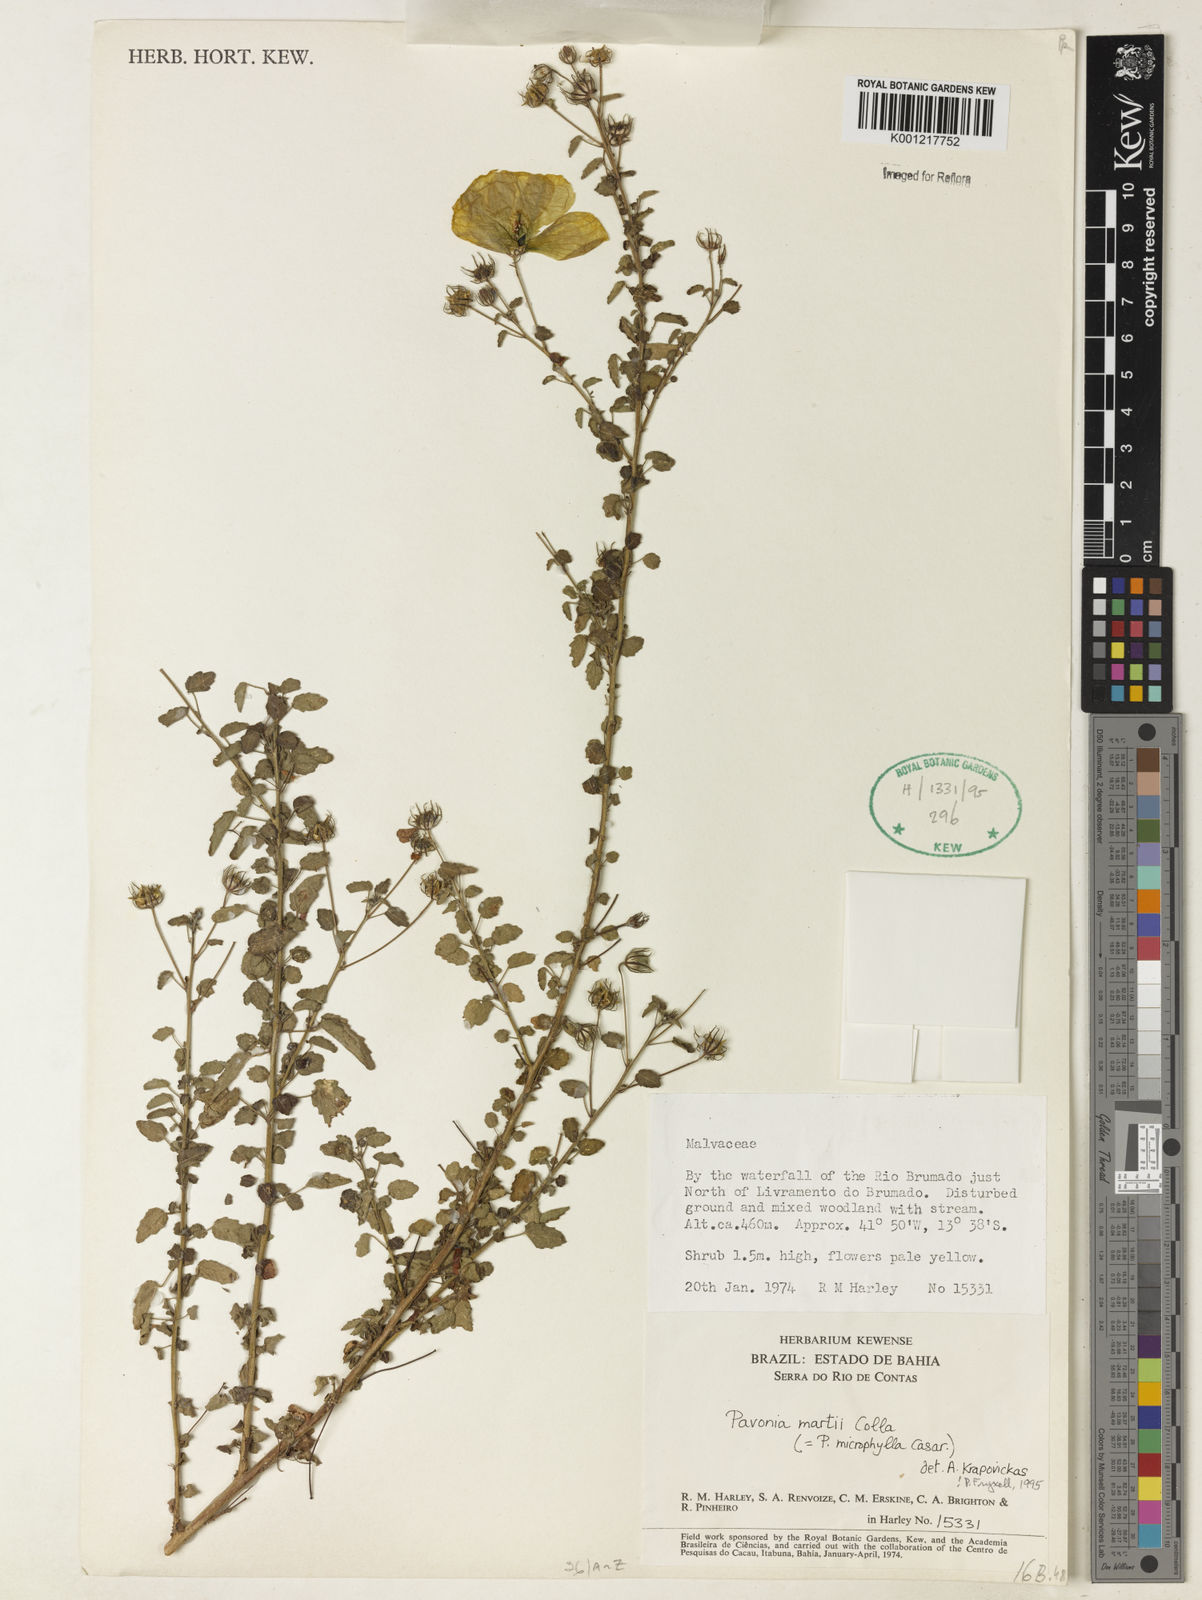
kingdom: Plantae
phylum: Tracheophyta
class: Magnoliopsida
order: Malvales
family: Malvaceae
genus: Pavonia
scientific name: Pavonia martii
